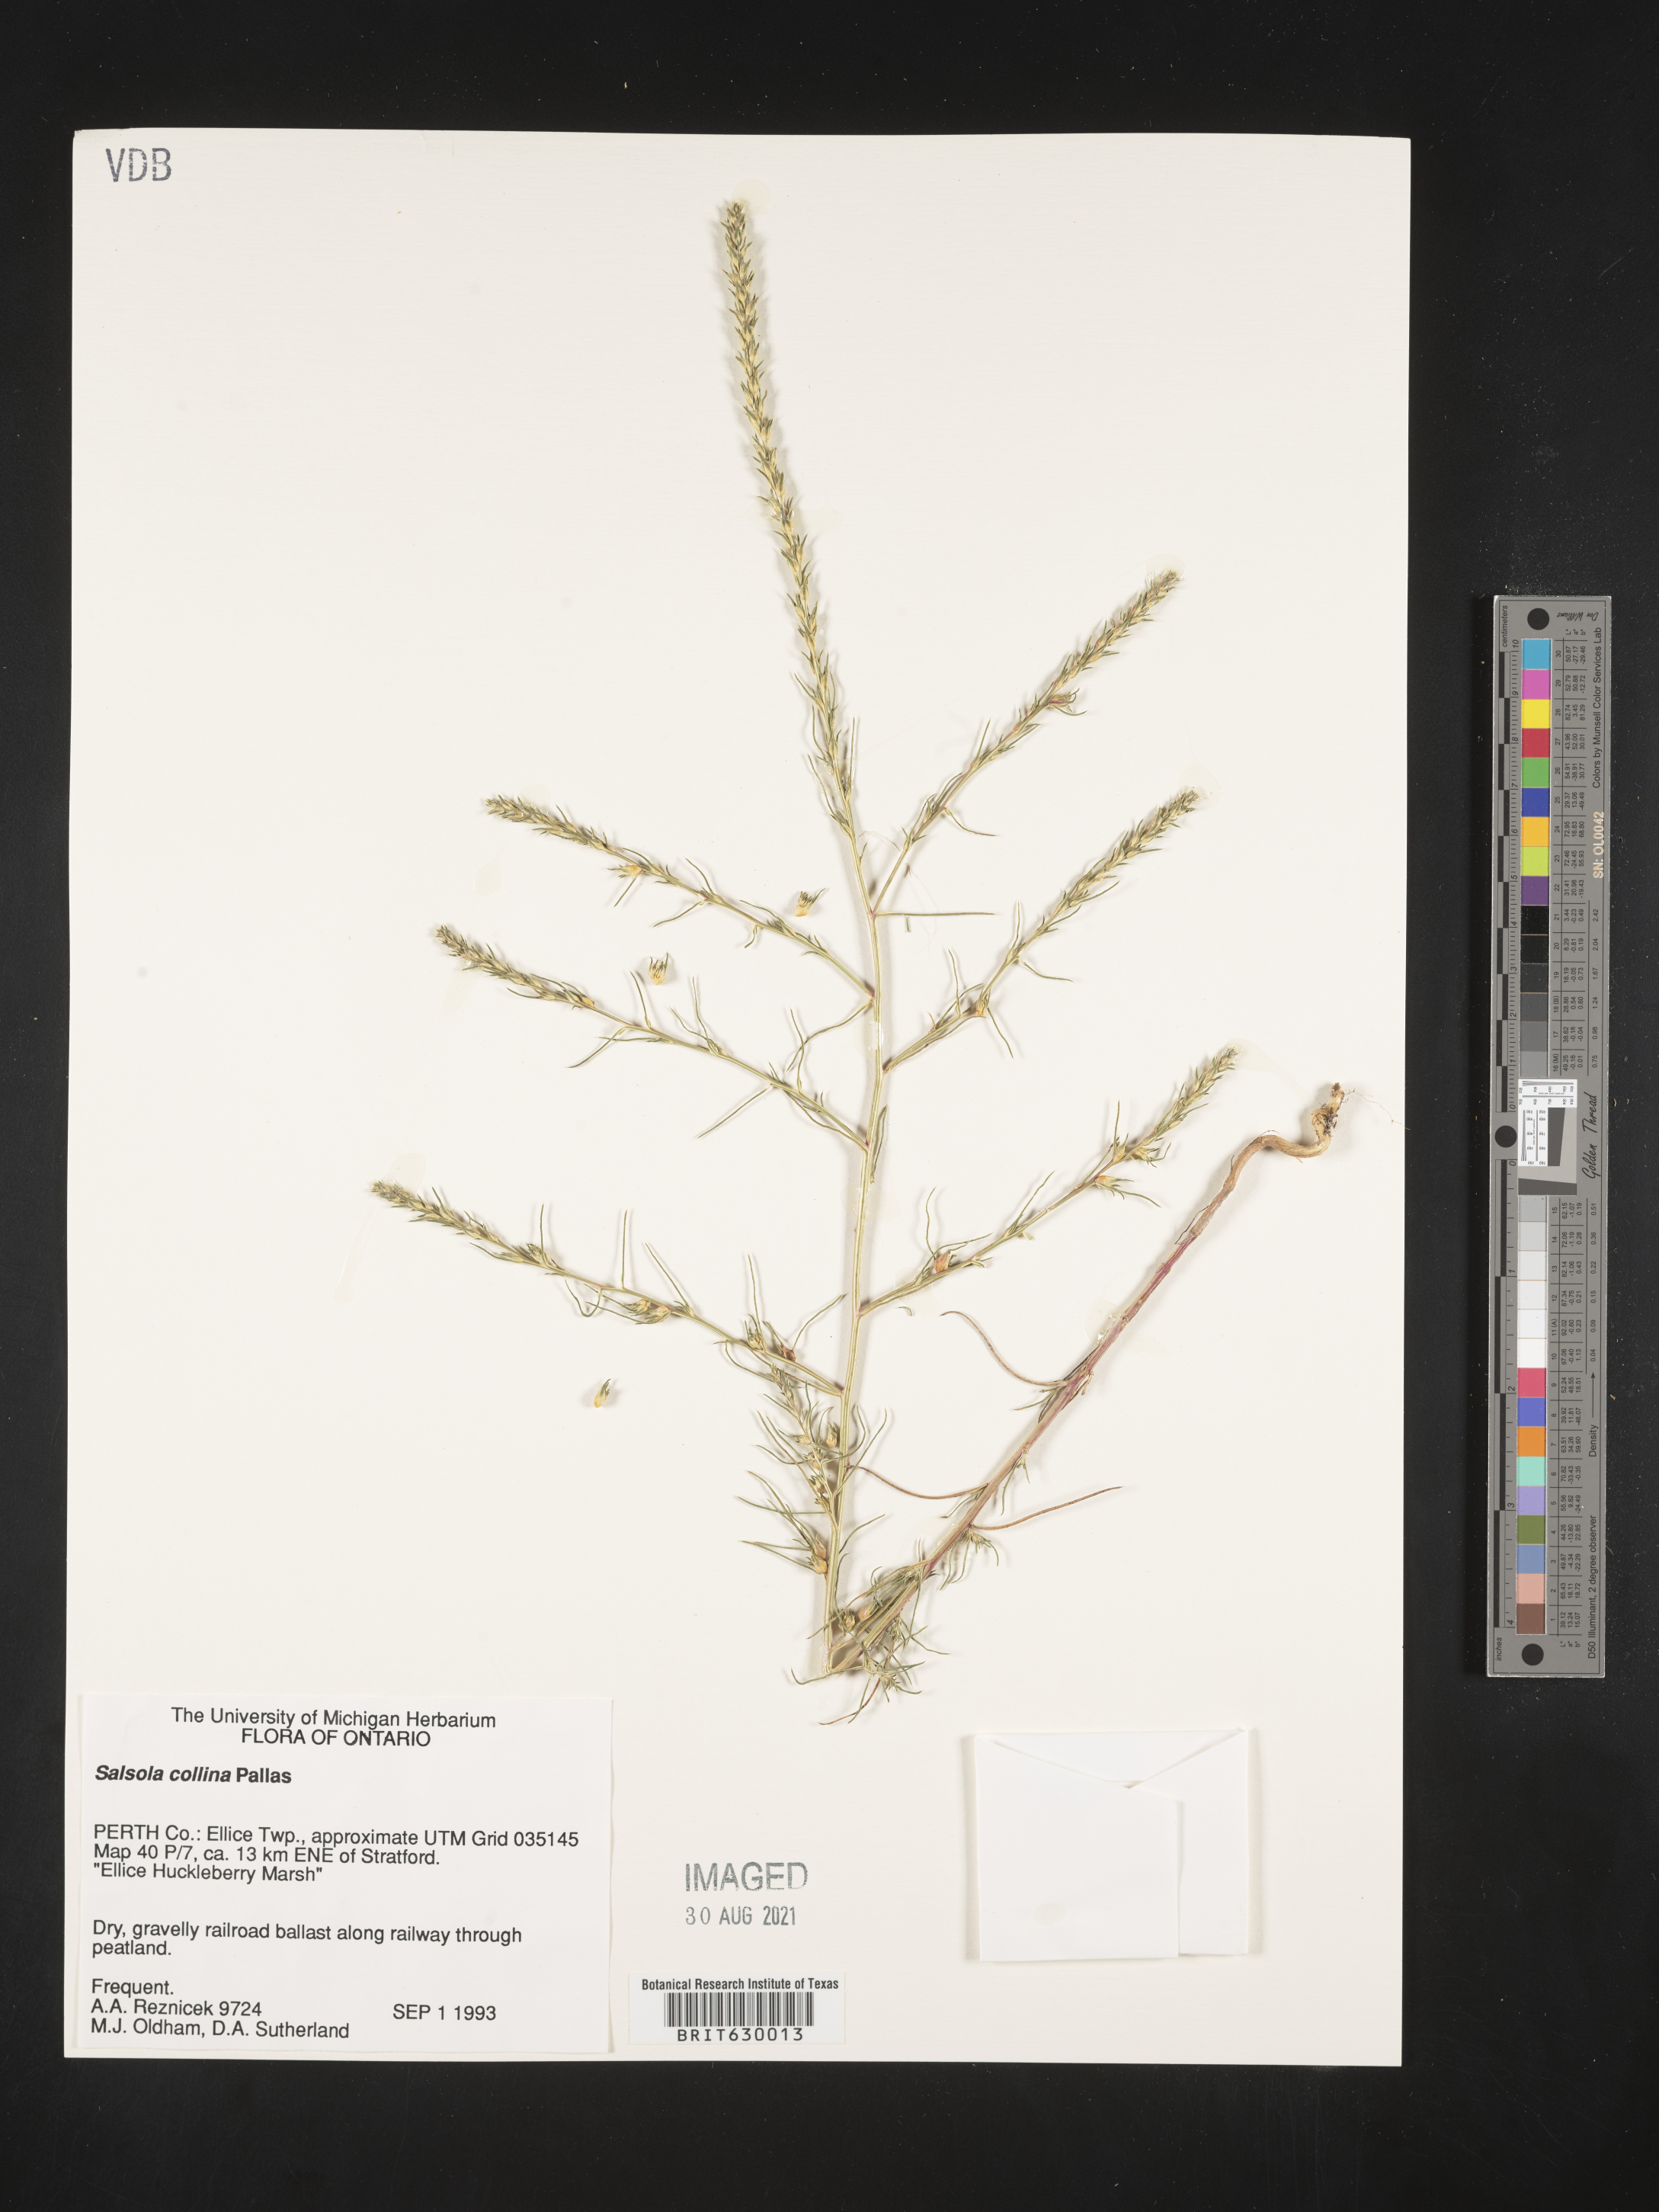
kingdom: Plantae
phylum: Tracheophyta
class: Magnoliopsida
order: Caryophyllales
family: Amaranthaceae
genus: Salsola
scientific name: Salsola collina
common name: Tumbleweed
